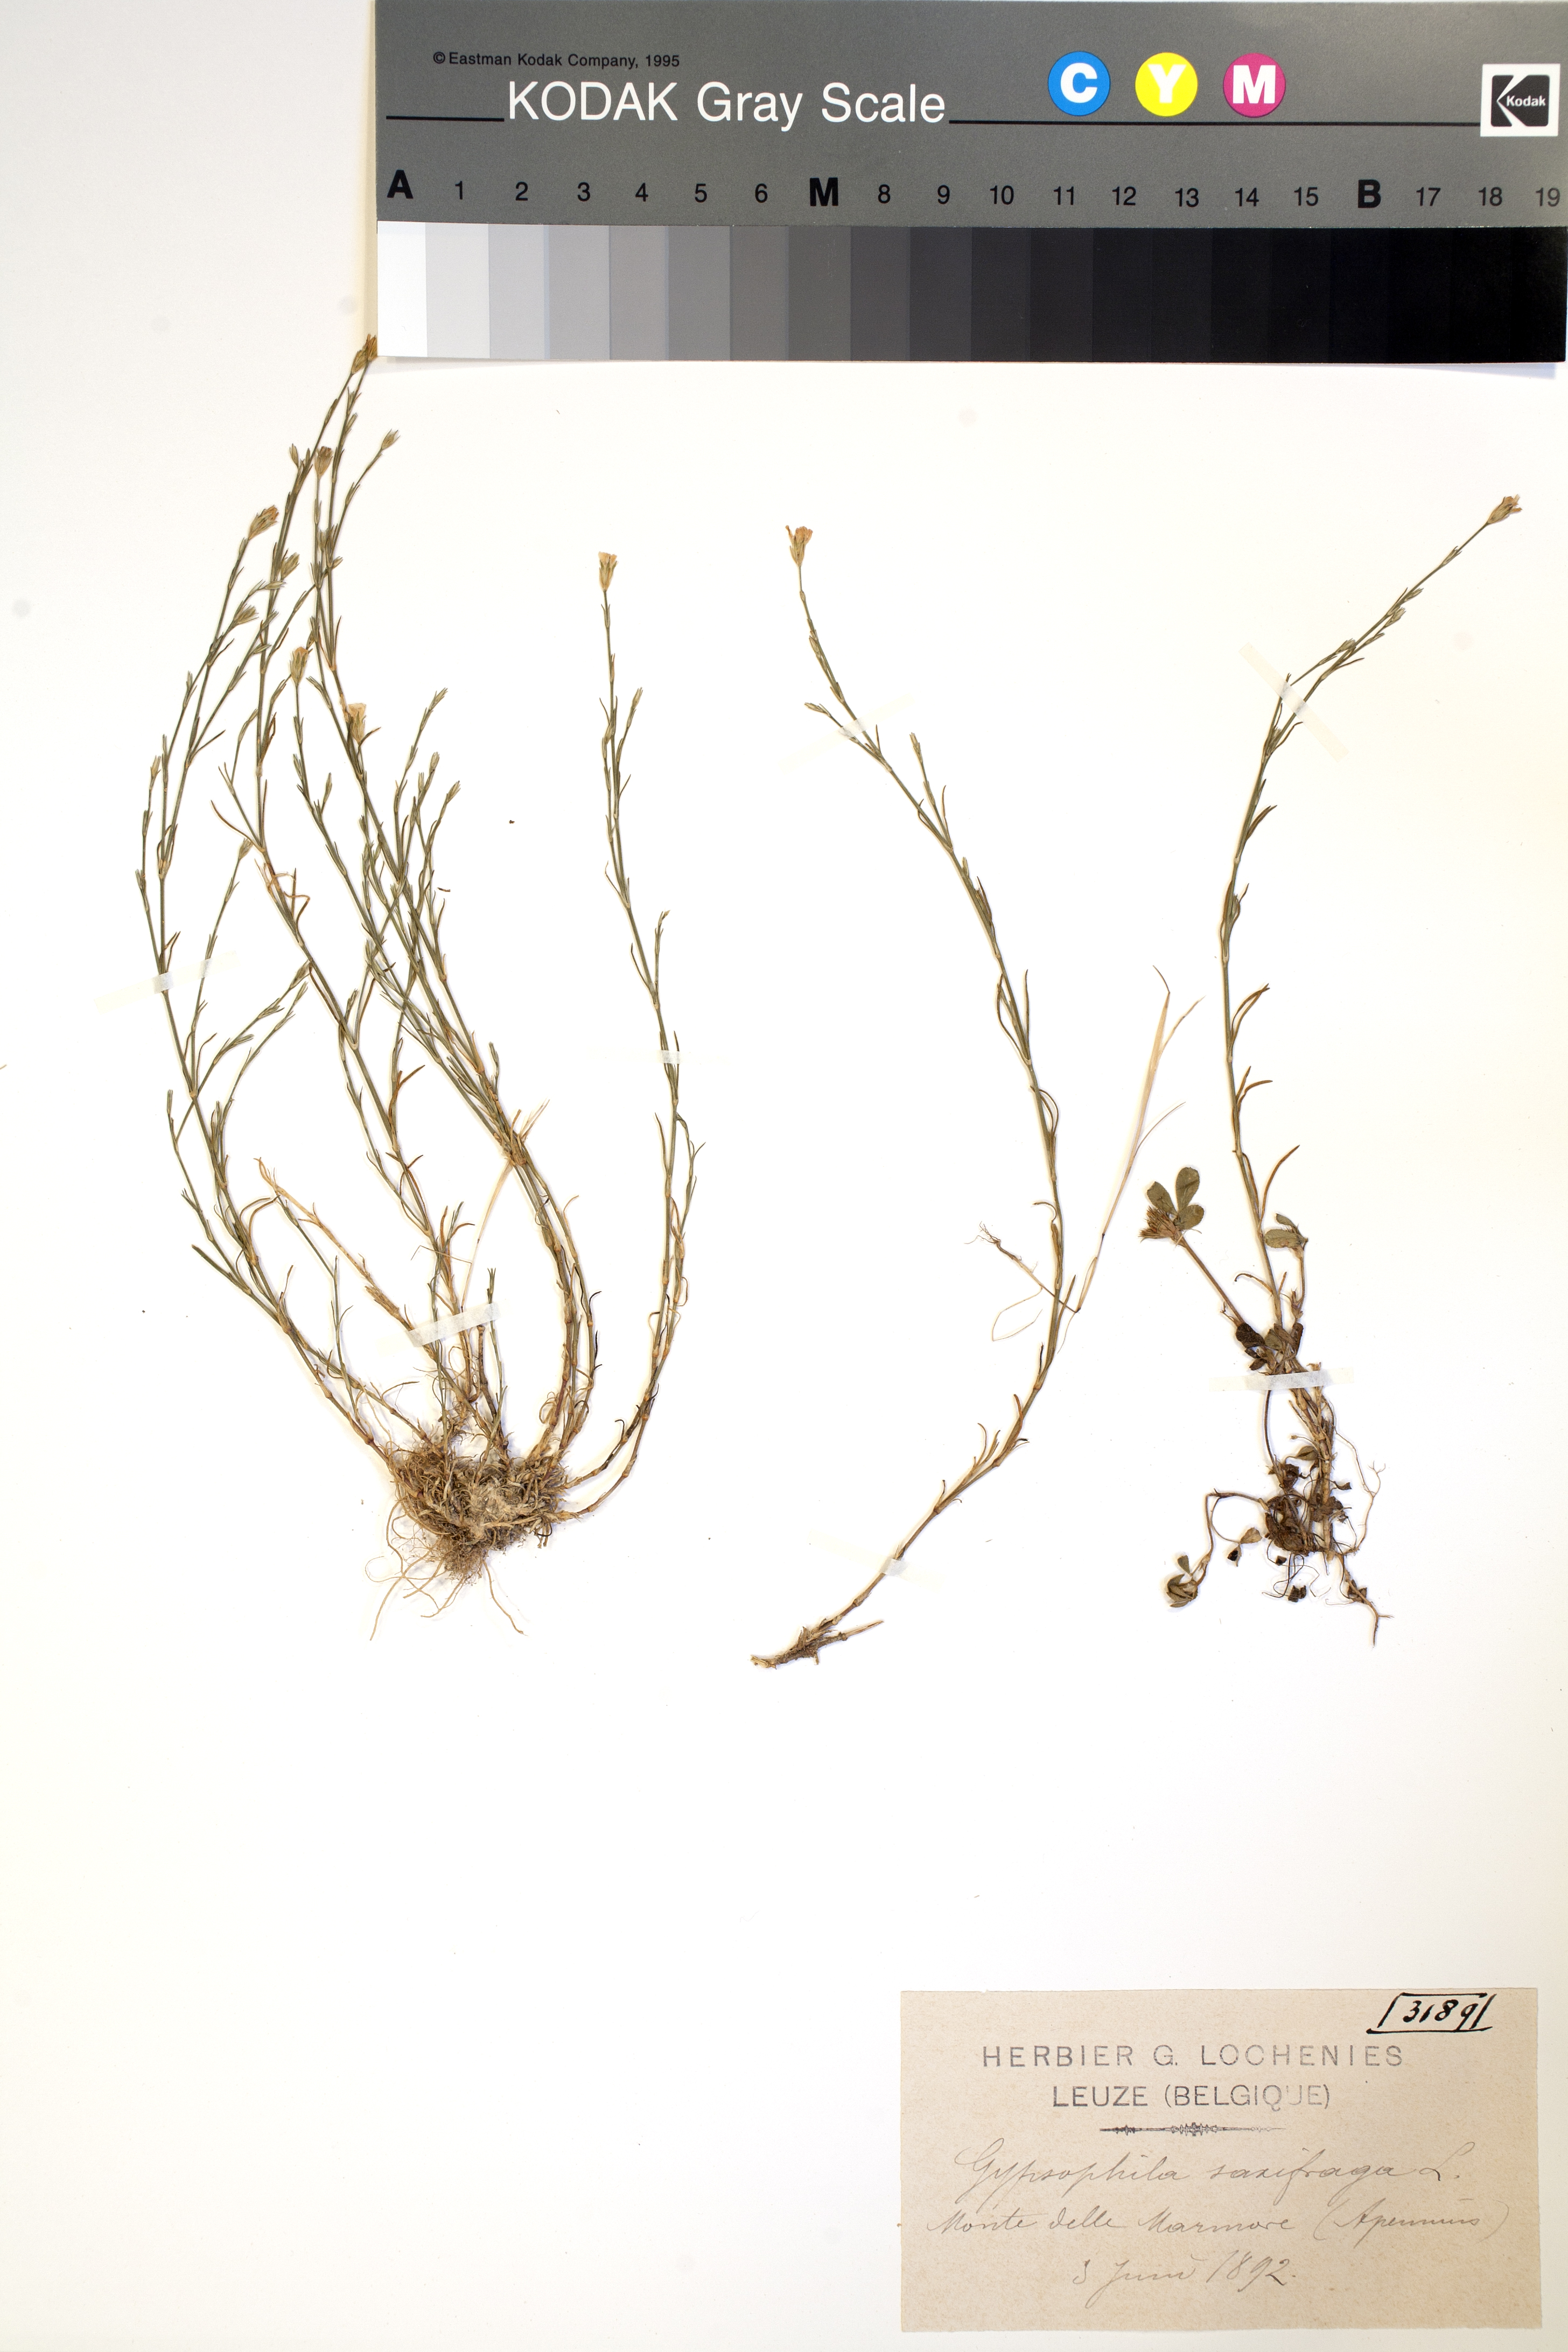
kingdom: Plantae
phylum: Tracheophyta
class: Magnoliopsida
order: Caryophyllales
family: Caryophyllaceae
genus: Petrorhagia
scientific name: Petrorhagia saxifraga
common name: Tunicflower
